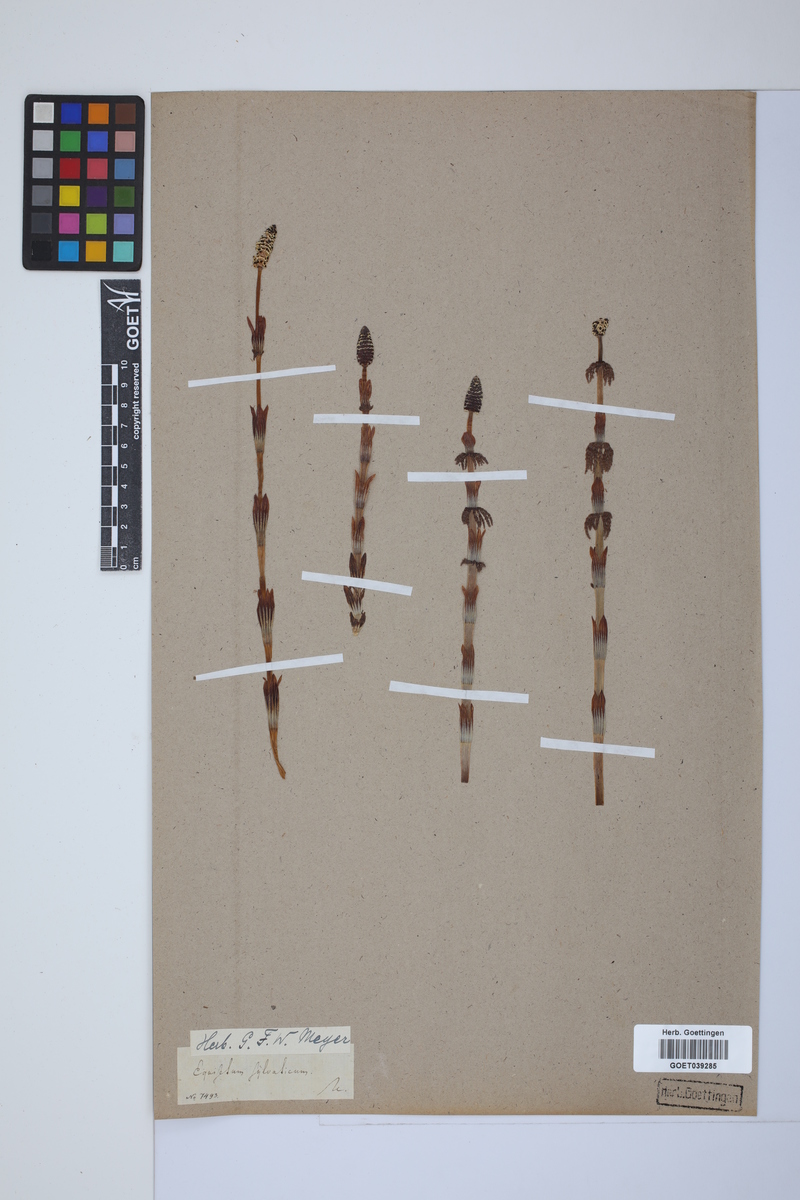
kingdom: Plantae
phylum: Tracheophyta
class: Polypodiopsida
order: Equisetales
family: Equisetaceae
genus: Equisetum
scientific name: Equisetum sylvaticum
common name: Wood horsetail
